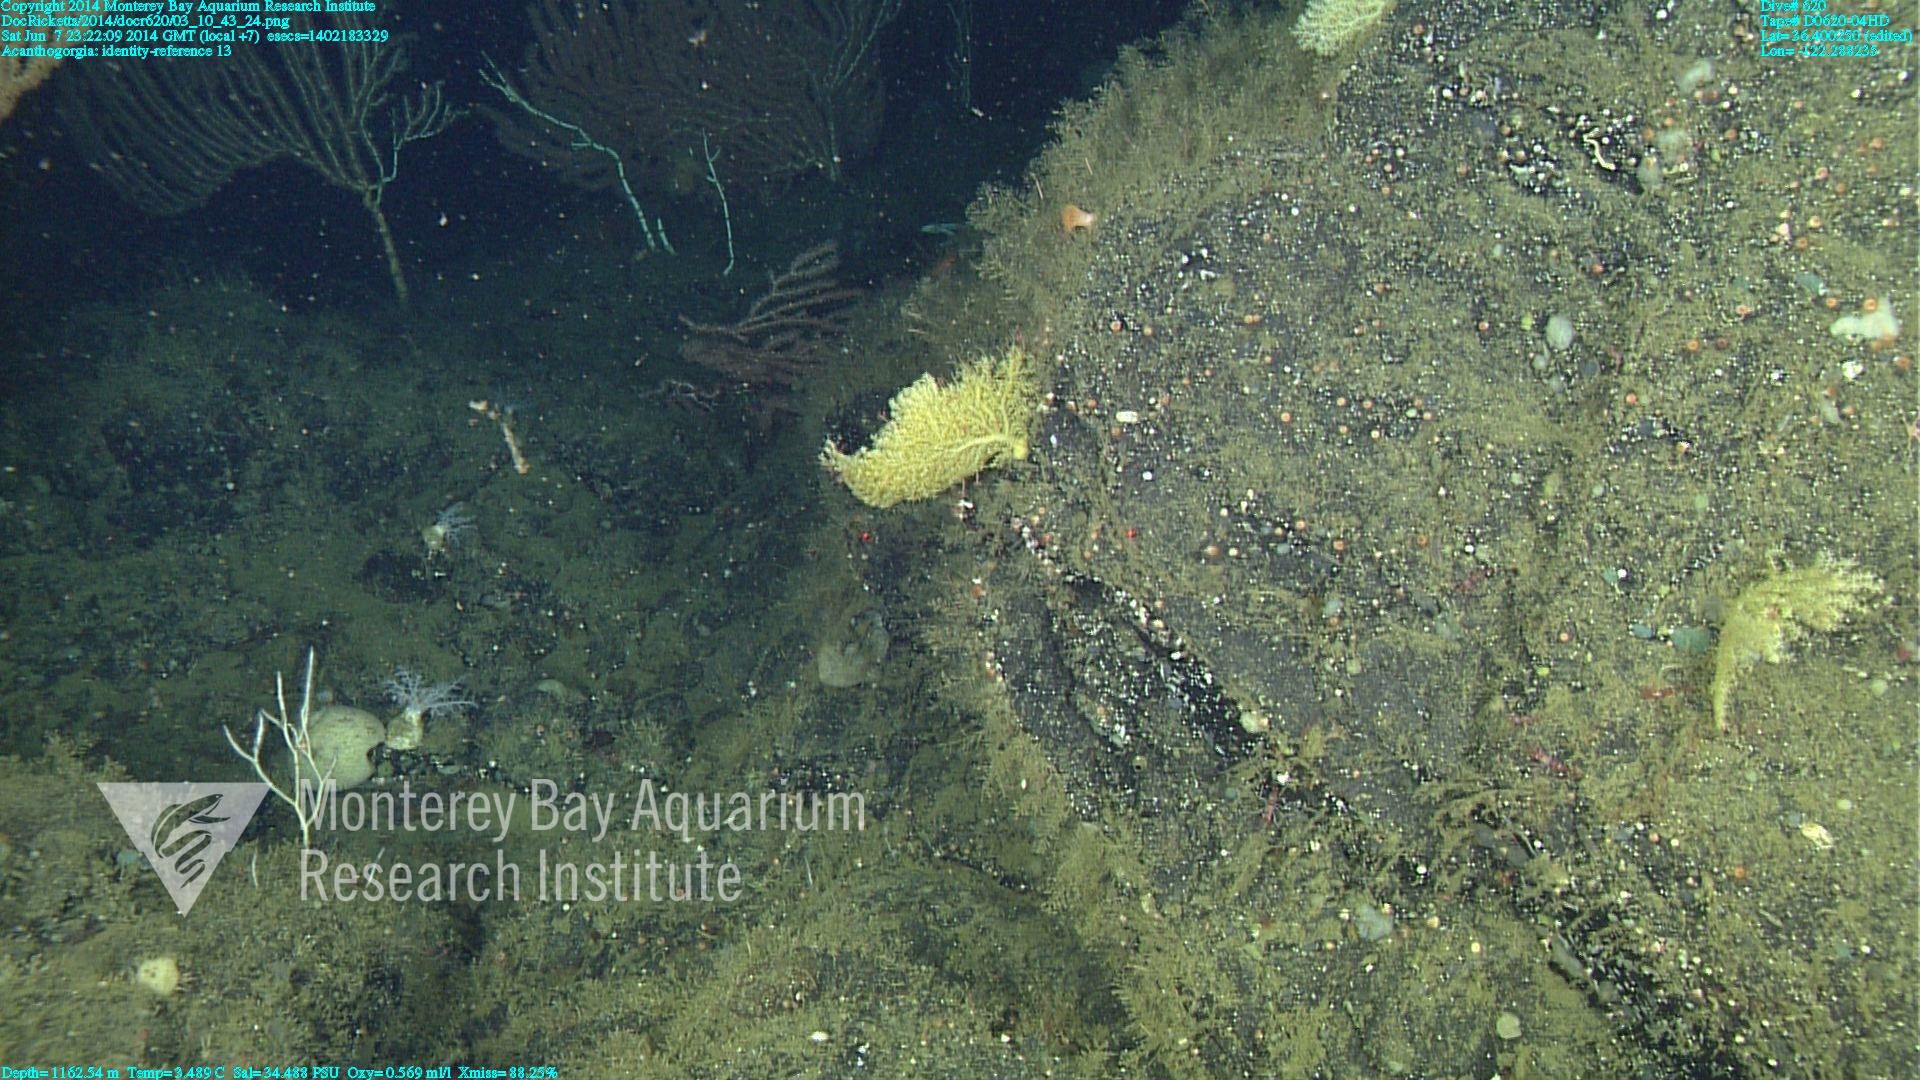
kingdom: Animalia
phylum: Cnidaria
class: Anthozoa
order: Malacalcyonacea
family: Paramuriceidae
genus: Acanthogorgia
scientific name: Acanthogorgia
